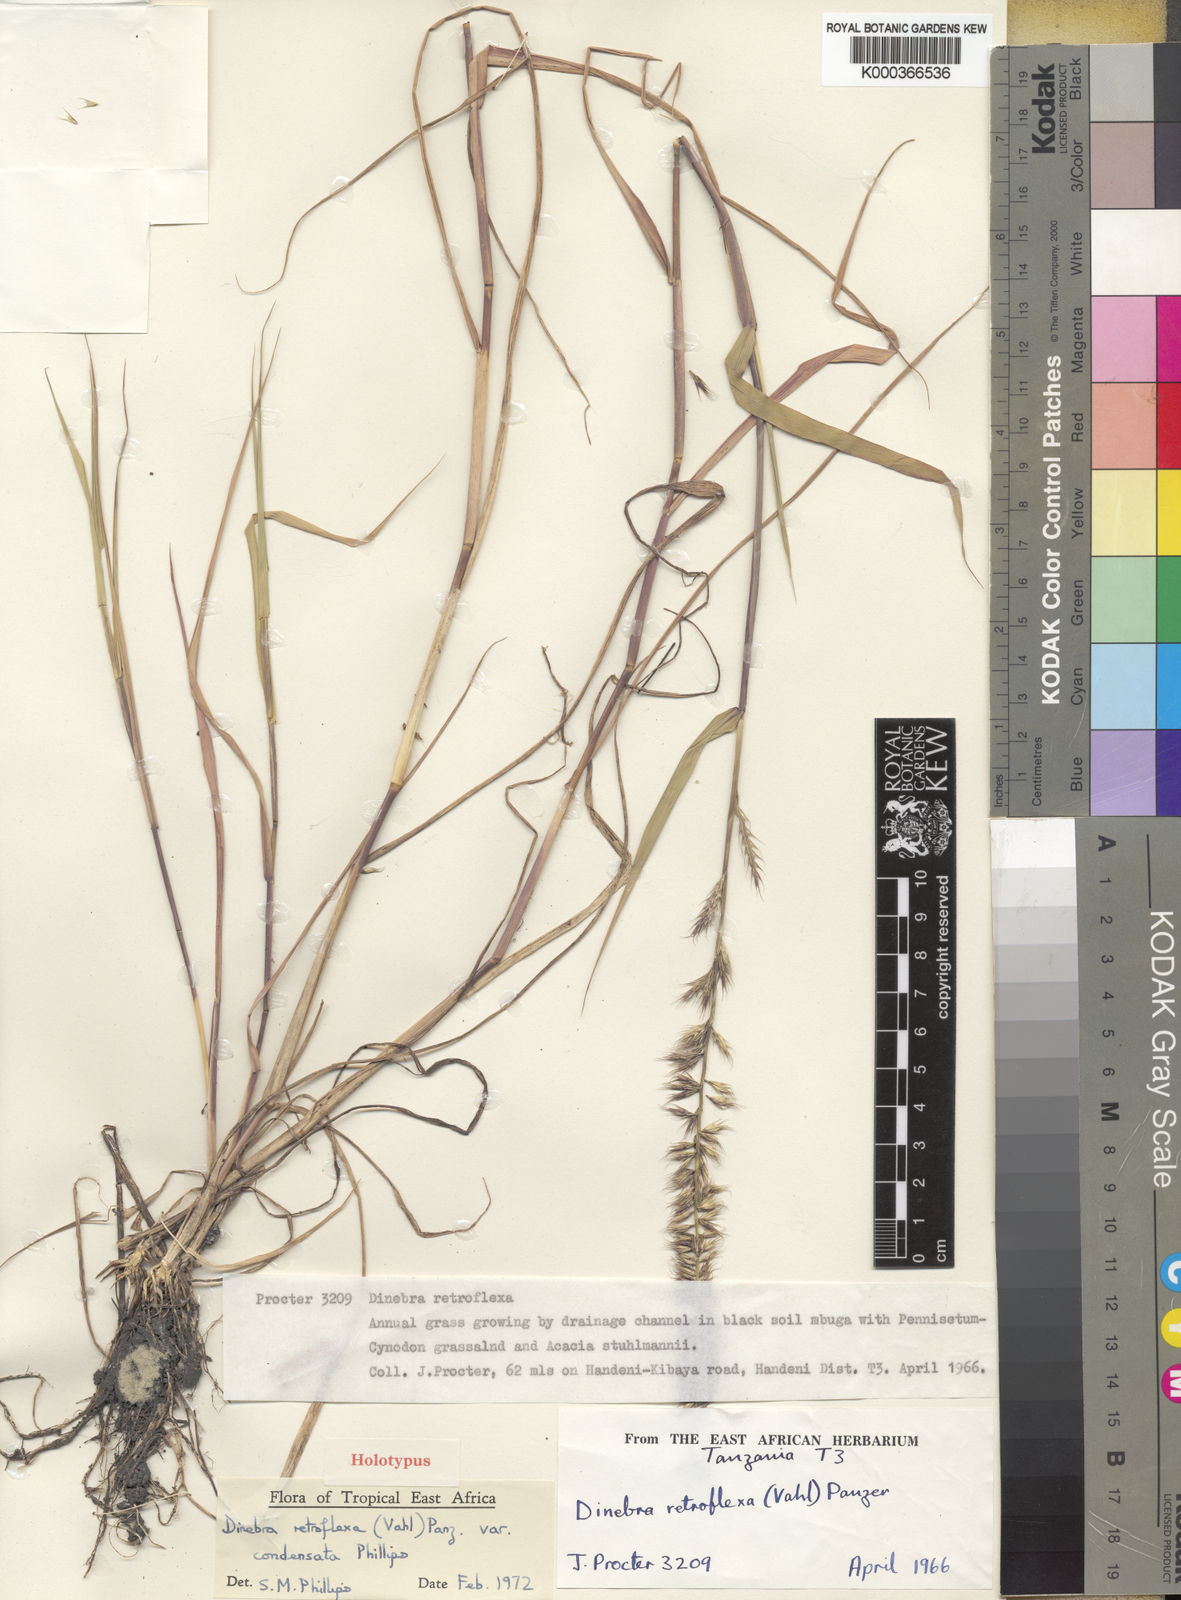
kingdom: Plantae
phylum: Tracheophyta
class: Liliopsida
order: Poales
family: Poaceae
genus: Dinebra
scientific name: Dinebra retroflexa
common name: Viper grass
